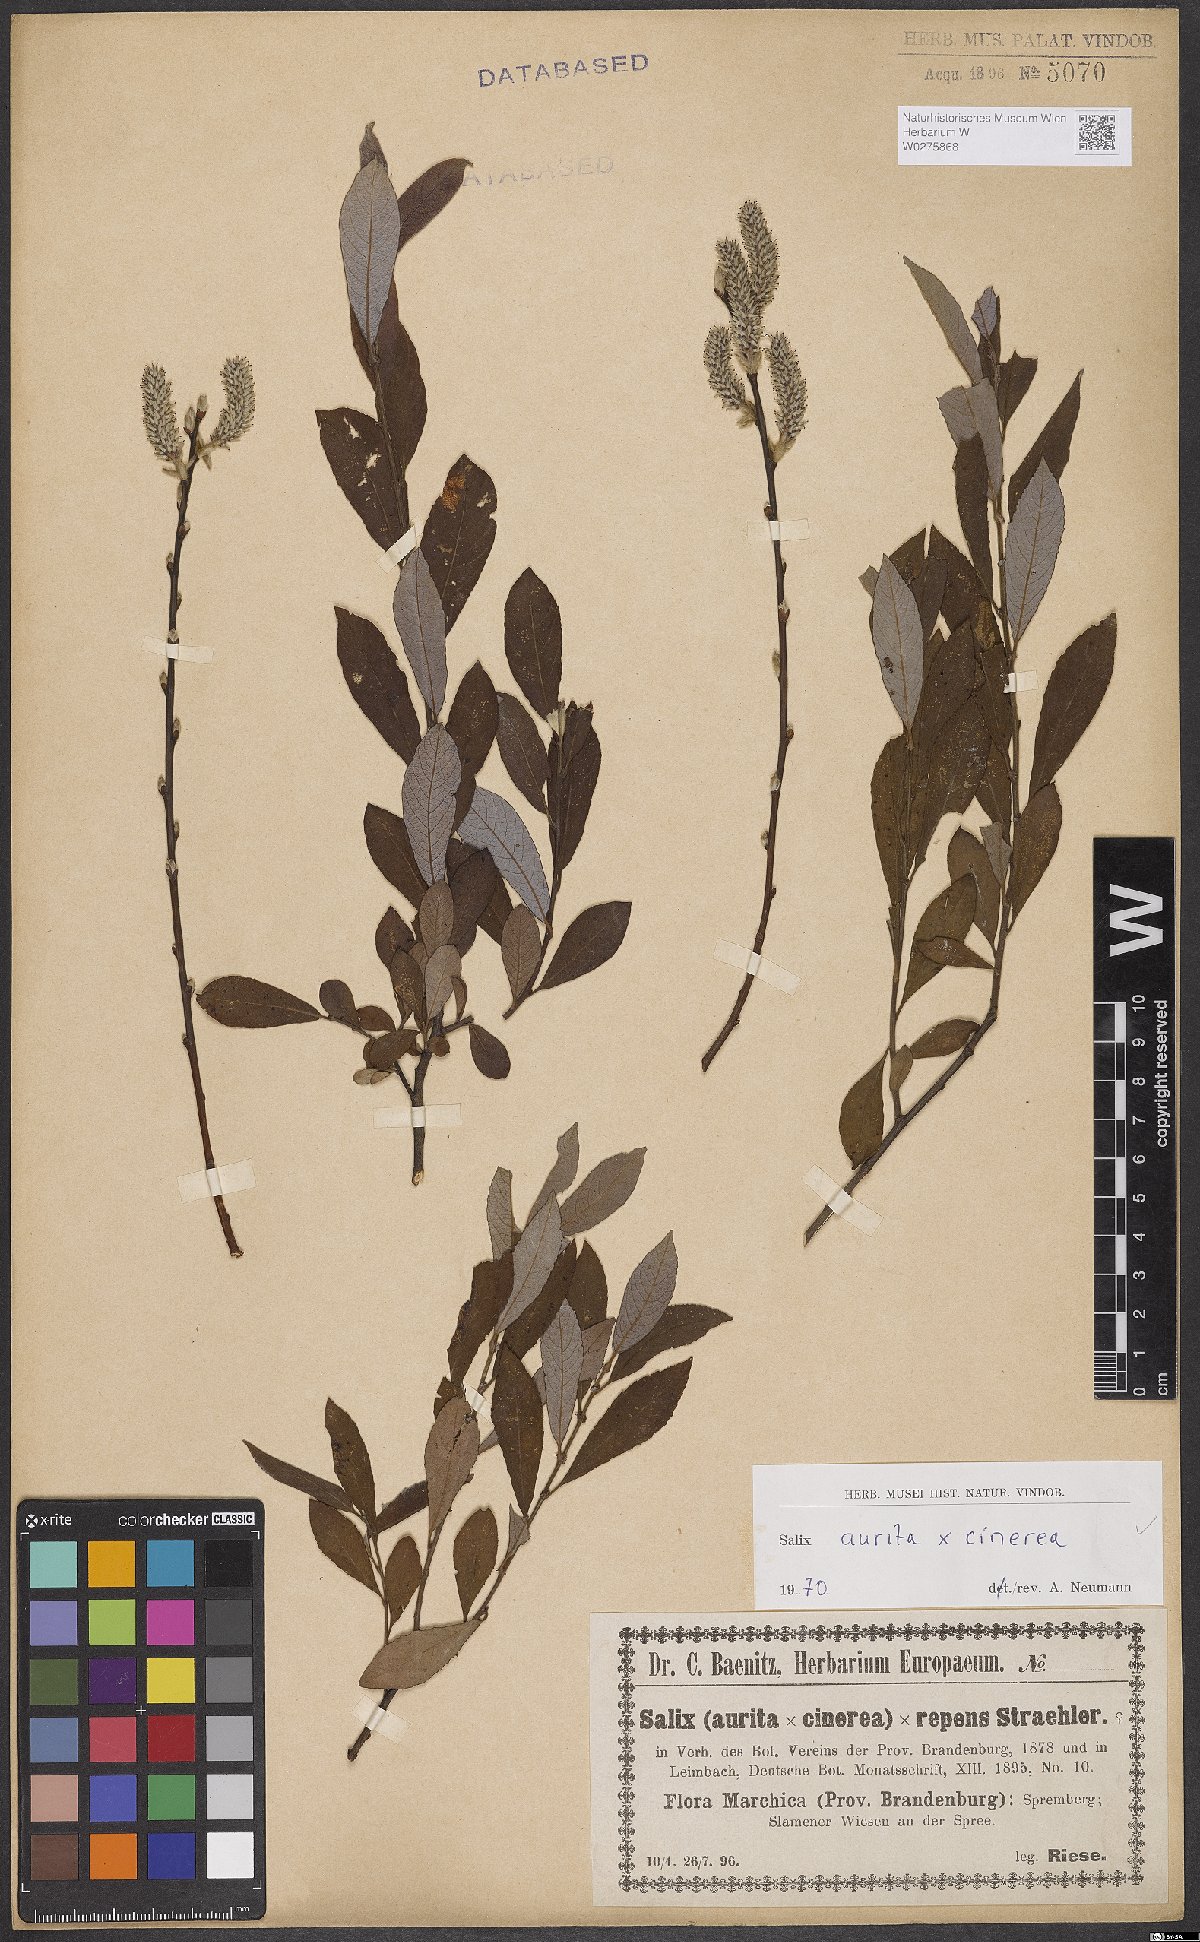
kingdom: Plantae
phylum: Tracheophyta
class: Magnoliopsida
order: Malpighiales
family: Salicaceae
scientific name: Salicaceae
